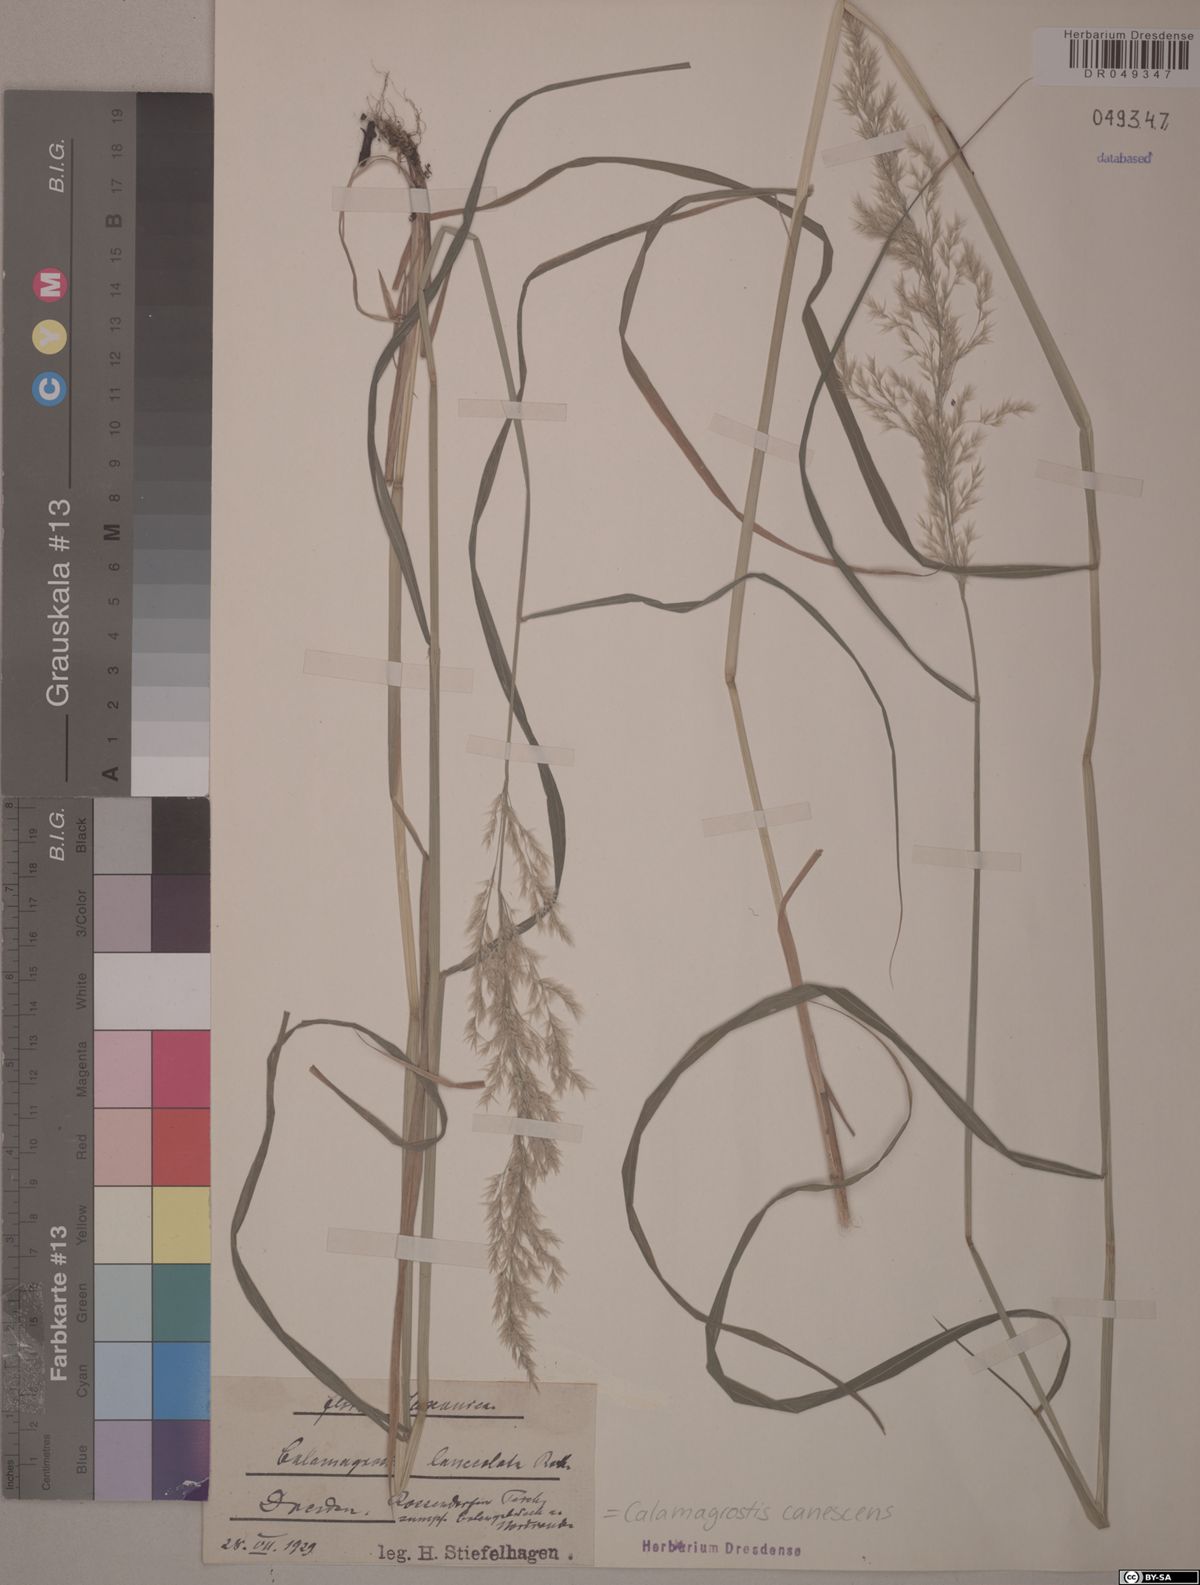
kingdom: Plantae
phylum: Tracheophyta
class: Liliopsida
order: Poales
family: Poaceae
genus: Calamagrostis
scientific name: Calamagrostis canescens
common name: Purple small-reed
